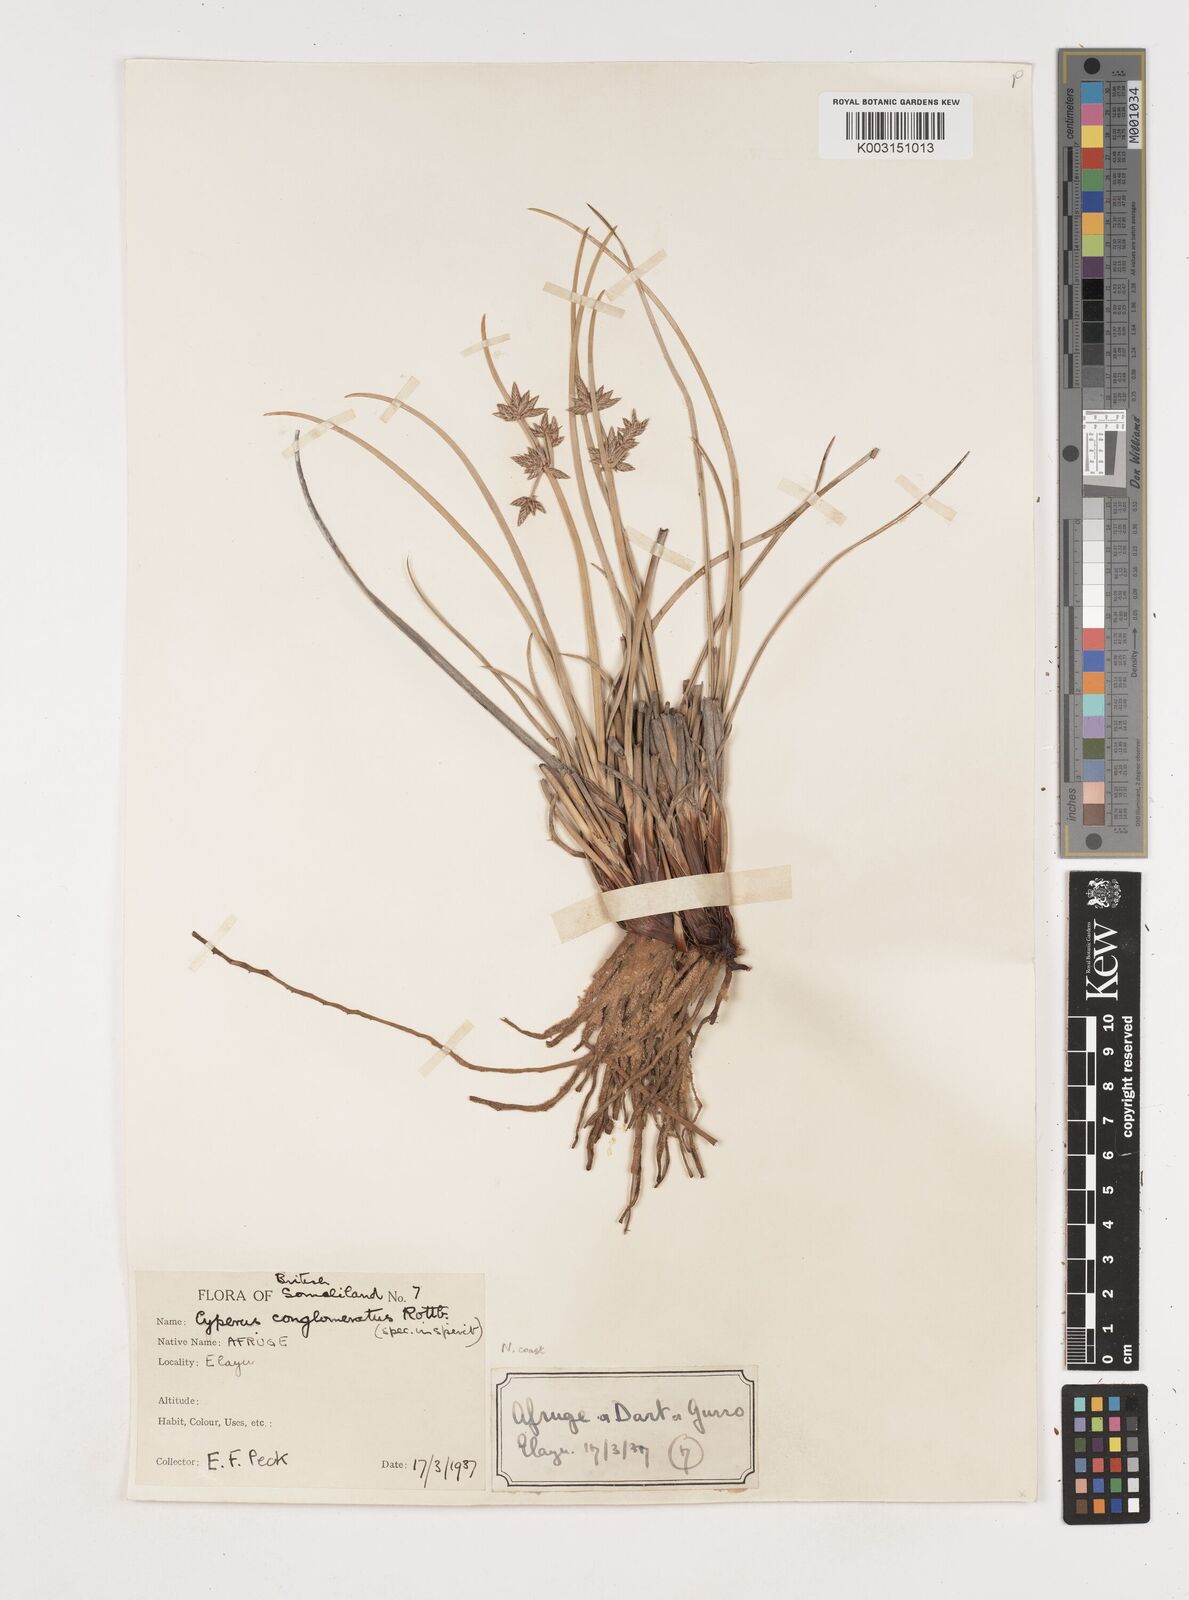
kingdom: Plantae
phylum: Tracheophyta
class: Liliopsida
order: Poales
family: Cyperaceae
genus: Cyperus
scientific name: Cyperus conglomeratus
